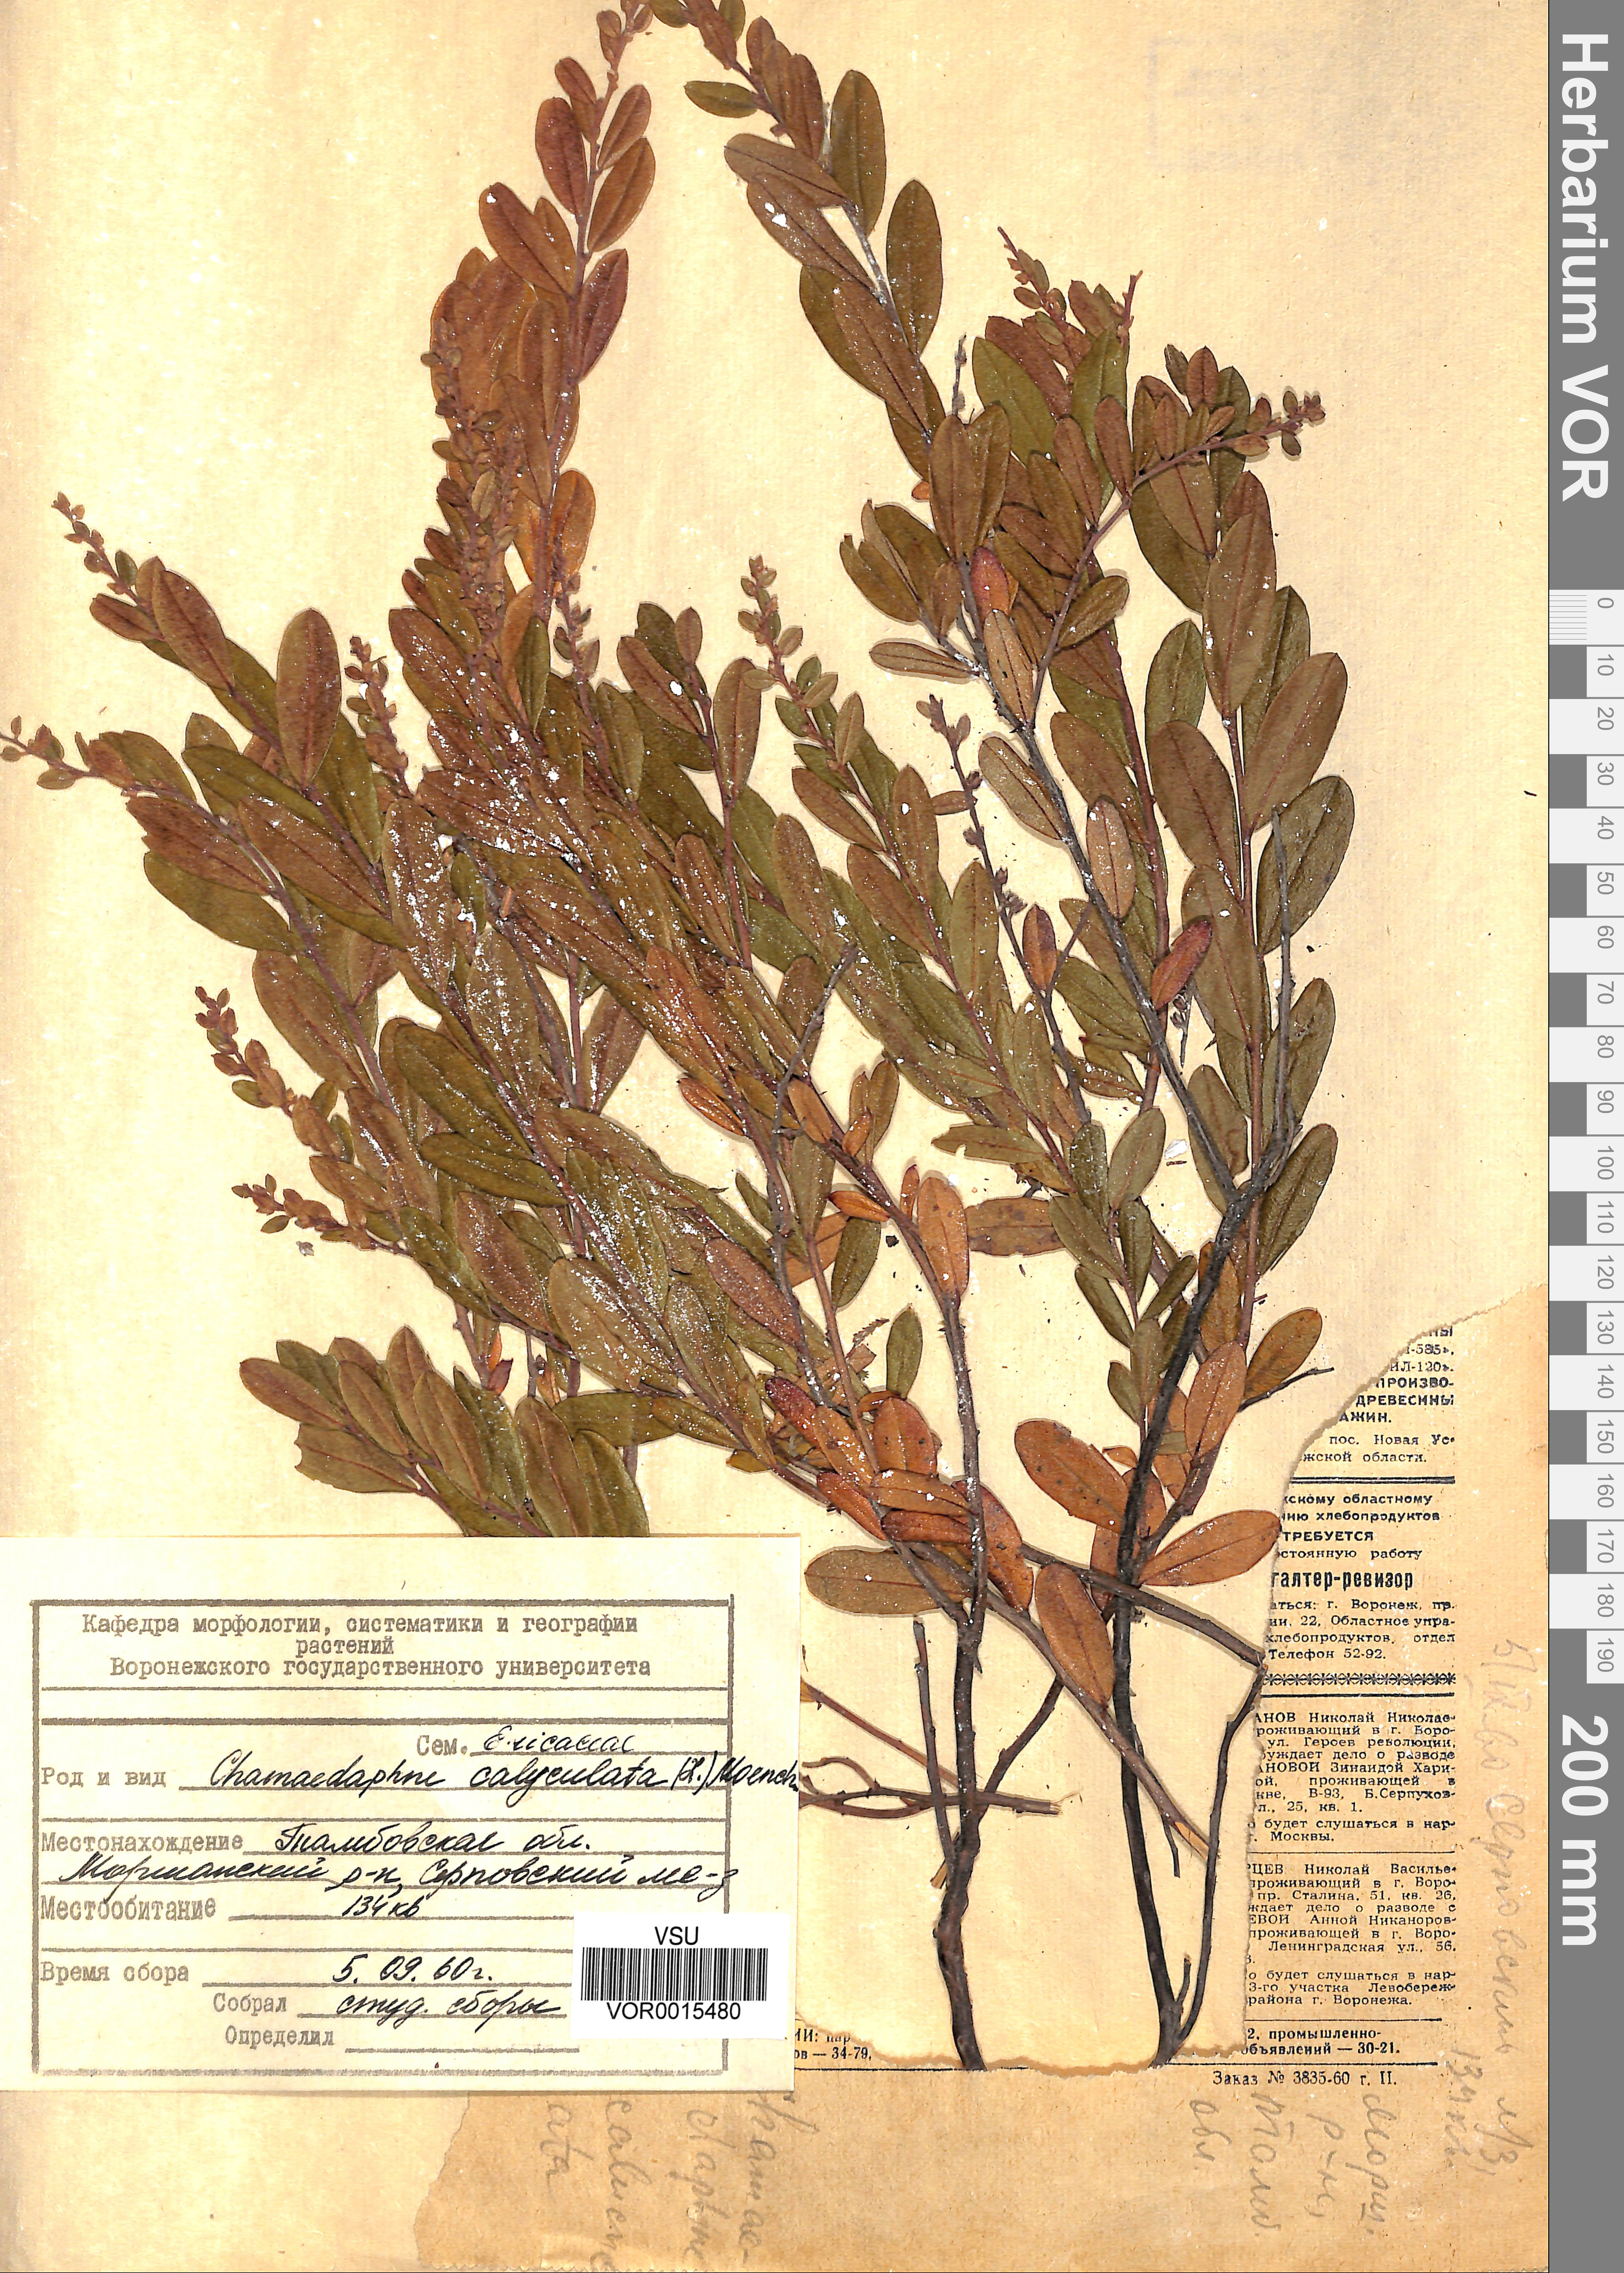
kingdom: Plantae
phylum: Tracheophyta
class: Magnoliopsida
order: Ericales
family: Ericaceae
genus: Chamaedaphne
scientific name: Chamaedaphne calyculata
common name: Leatherleaf
